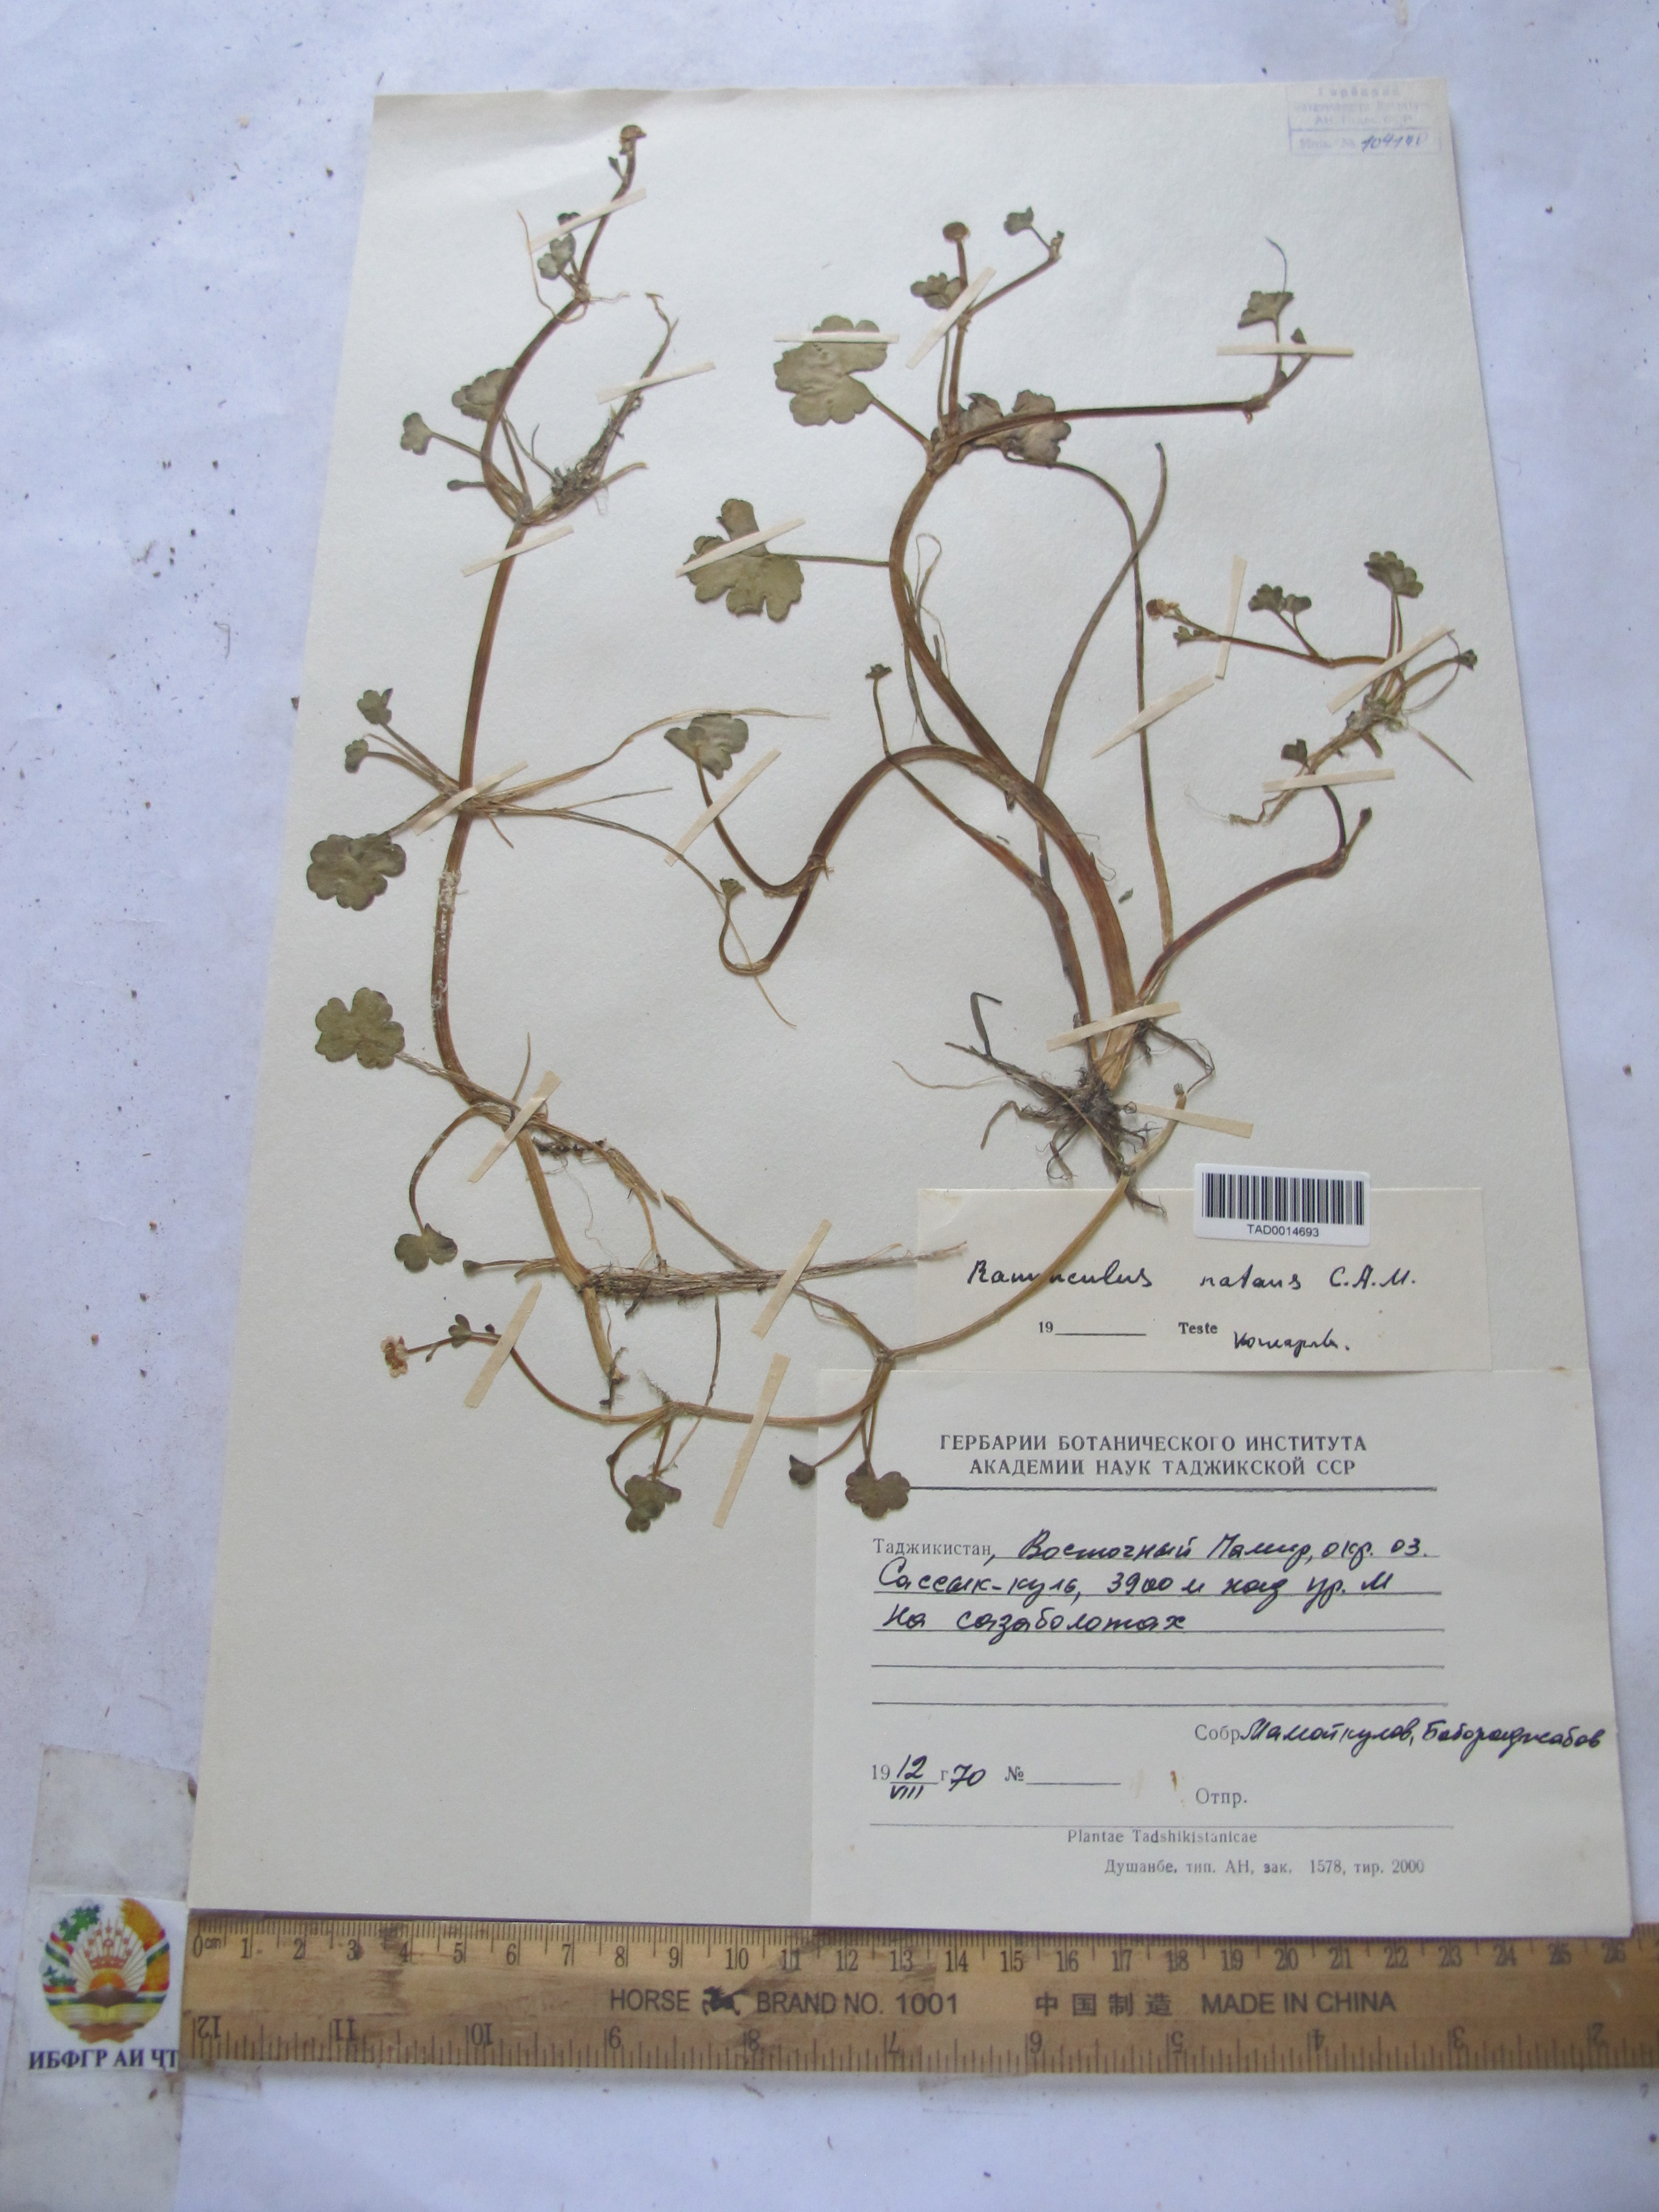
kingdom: Plantae
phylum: Tracheophyta
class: Magnoliopsida
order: Ranunculales
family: Ranunculaceae
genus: Ranunculus
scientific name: Ranunculus natans
